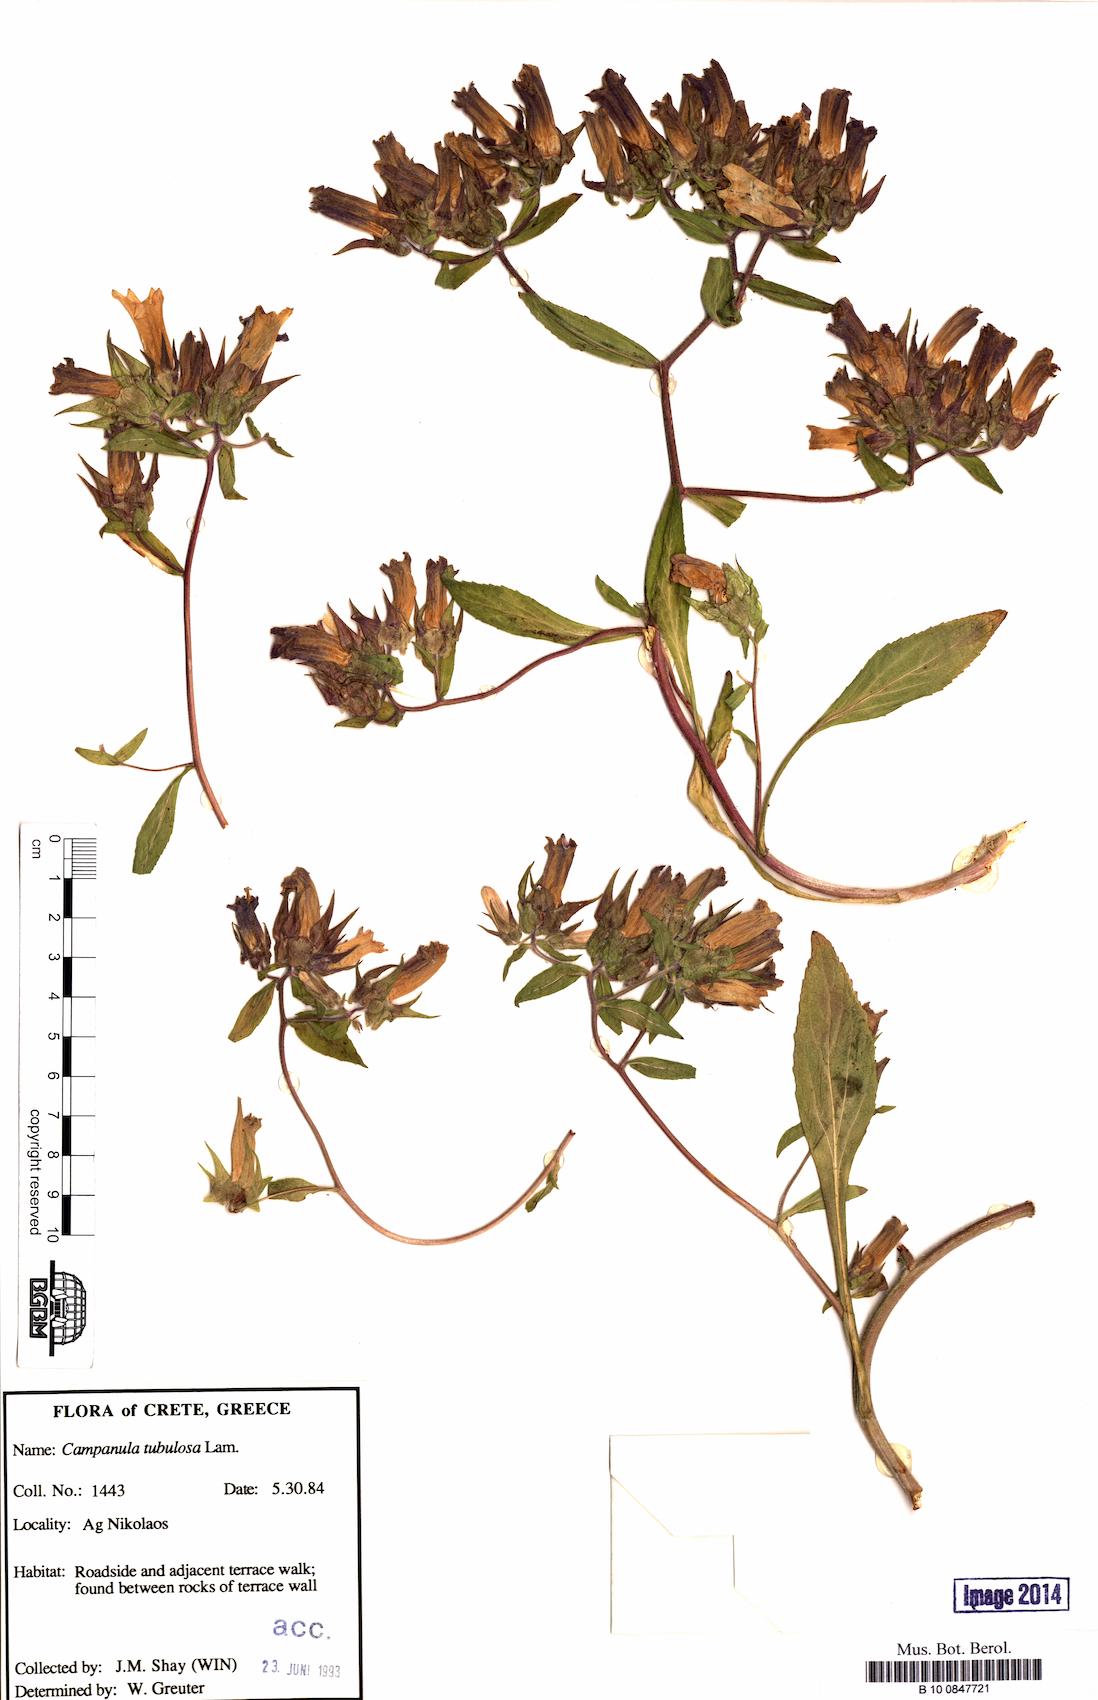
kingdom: Plantae
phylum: Tracheophyta
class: Magnoliopsida
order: Asterales
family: Campanulaceae
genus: Campanula
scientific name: Campanula tubulosa
